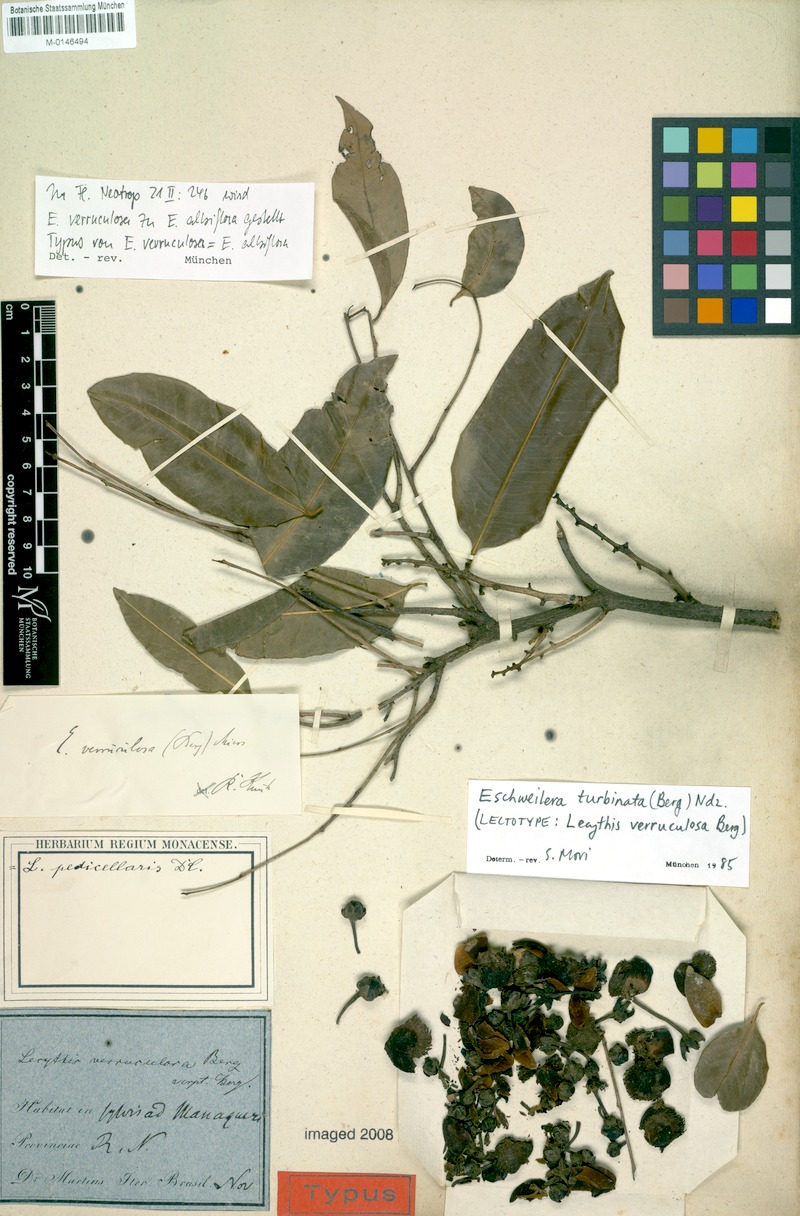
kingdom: Plantae
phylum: Tracheophyta
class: Magnoliopsida
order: Ericales
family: Lecythidaceae
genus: Eschweilera
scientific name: Eschweilera albiflora
